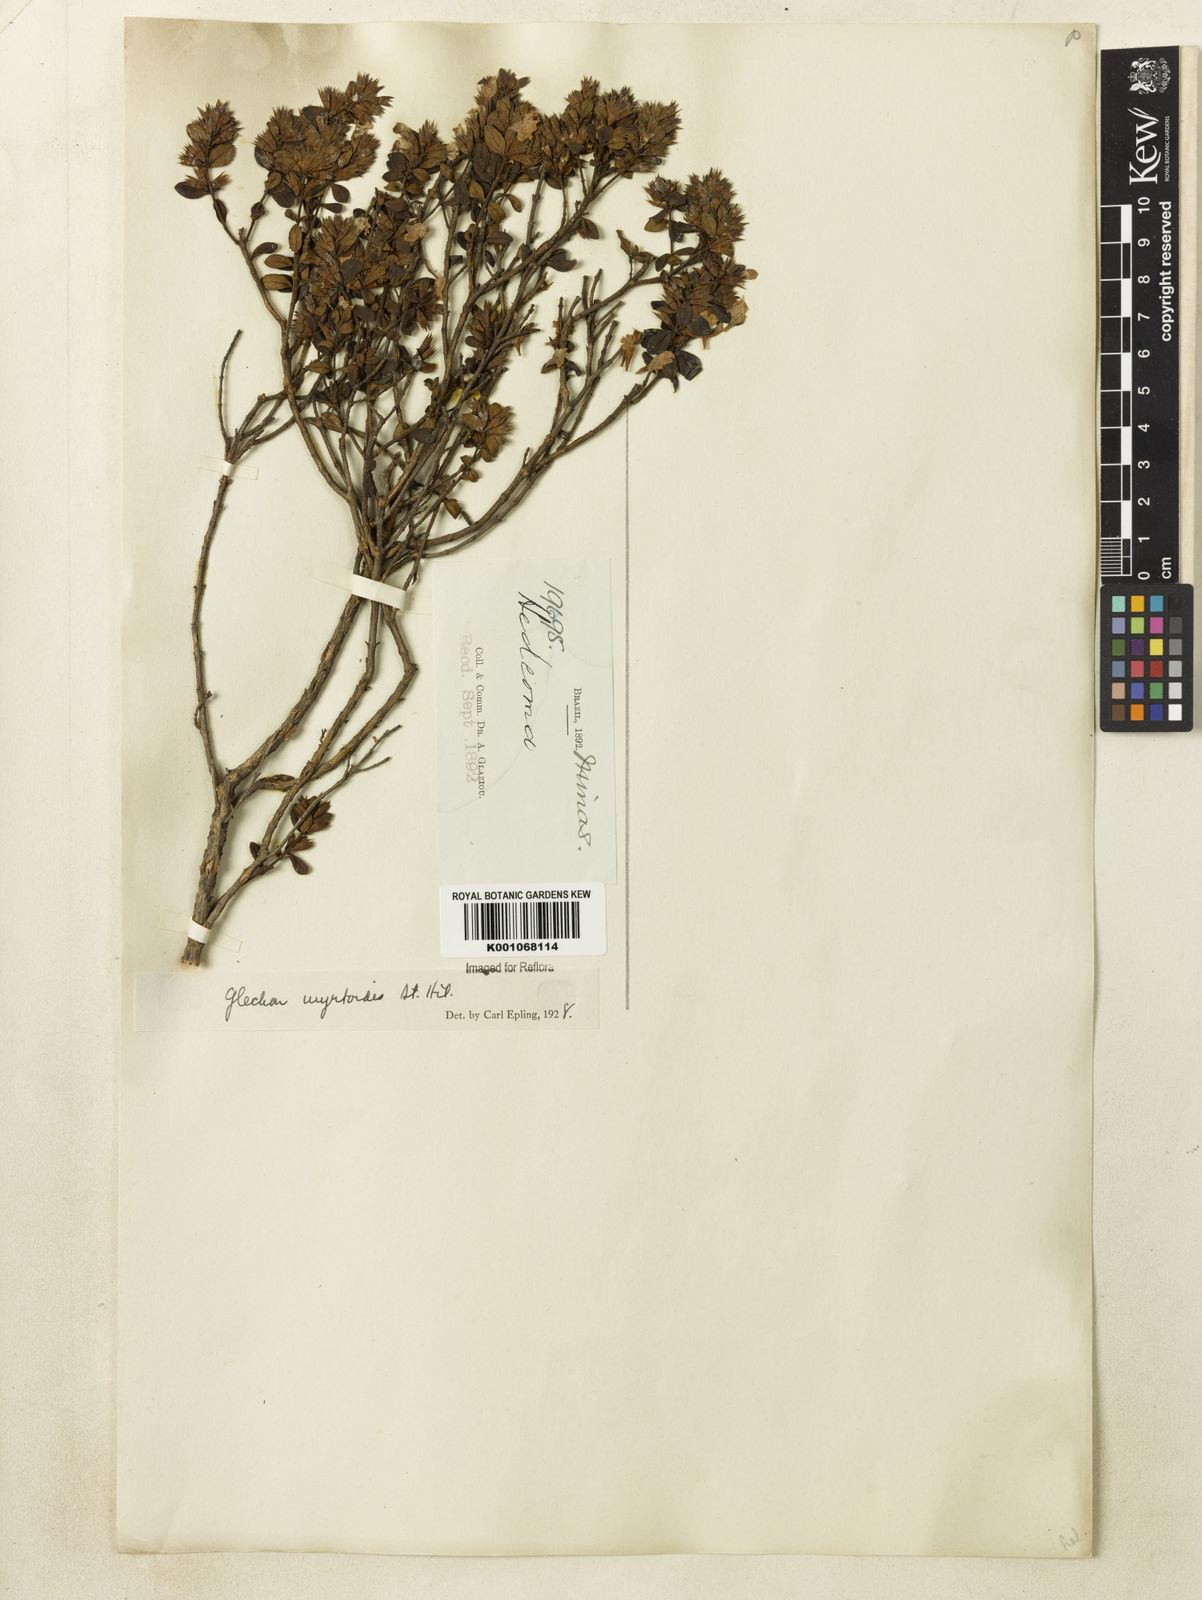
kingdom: Plantae
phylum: Tracheophyta
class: Magnoliopsida
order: Lamiales
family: Lamiaceae
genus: Hesperozygis
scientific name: Hesperozygis myrtoides
